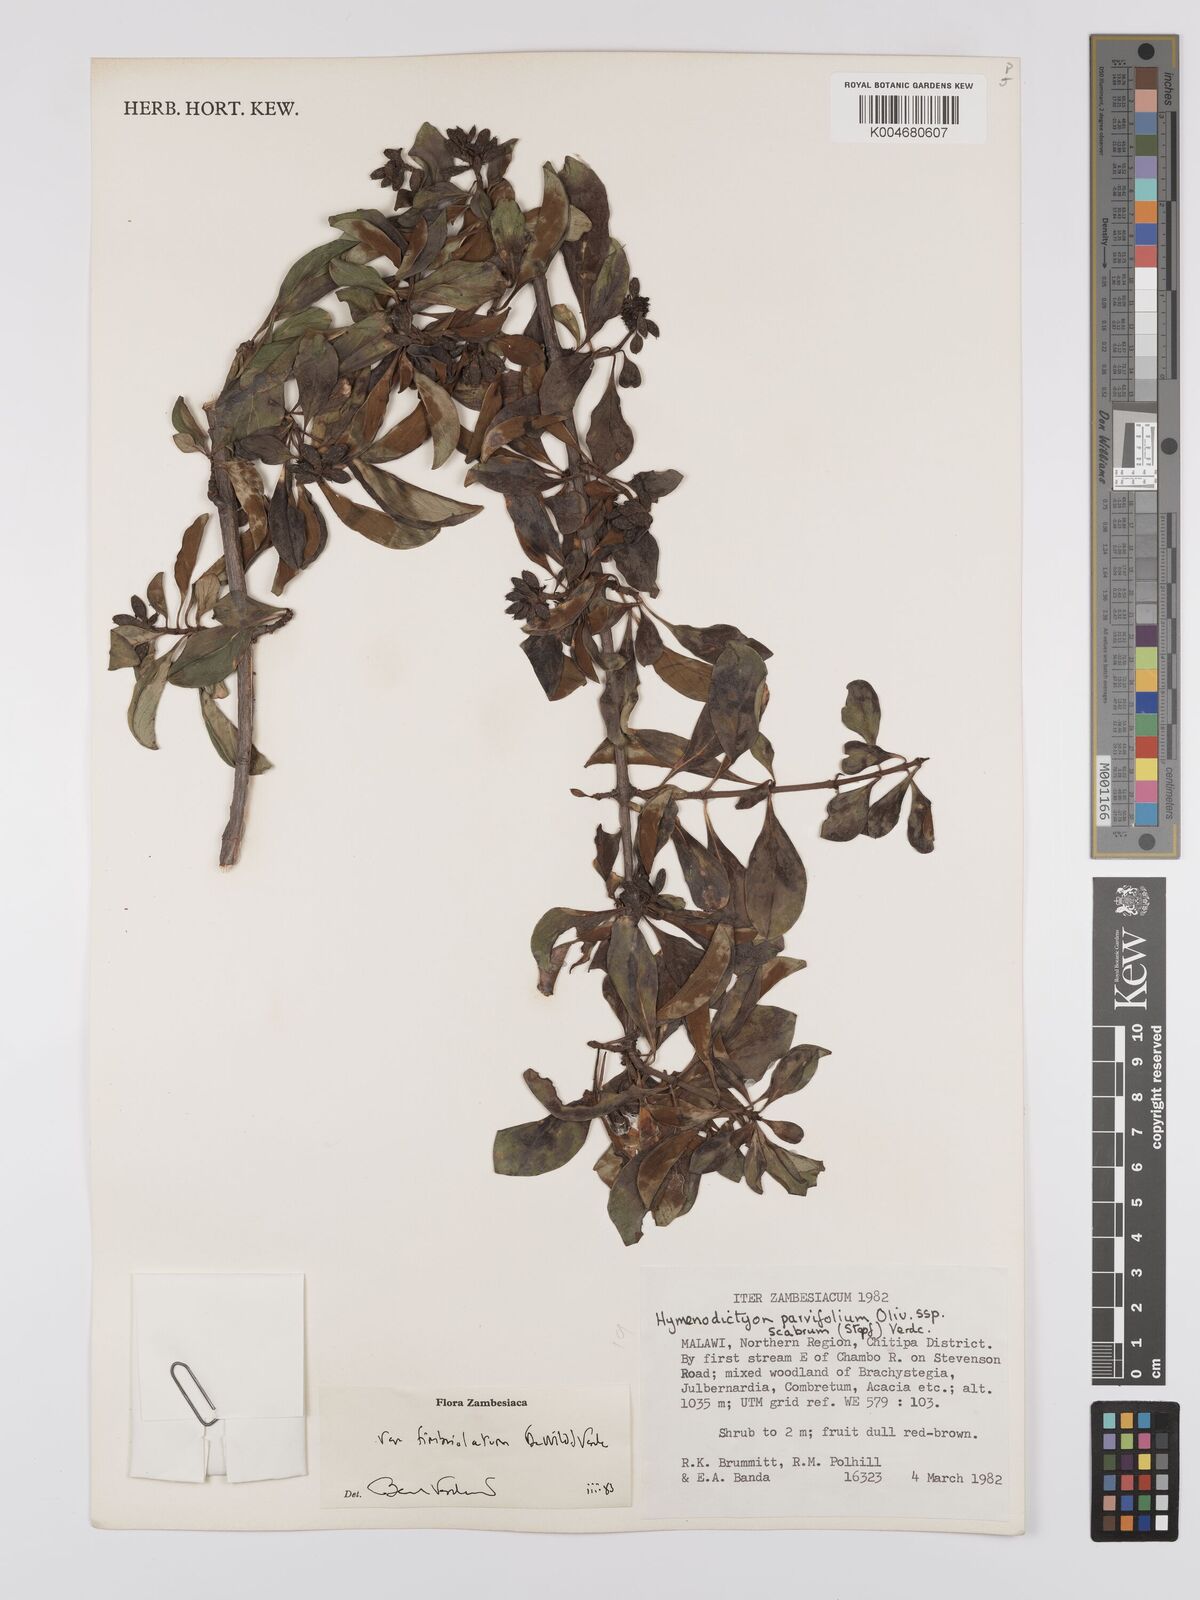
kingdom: Plantae
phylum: Tracheophyta
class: Magnoliopsida
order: Gentianales
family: Rubiaceae
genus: Hymenodictyon
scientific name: Hymenodictyon scabrum
